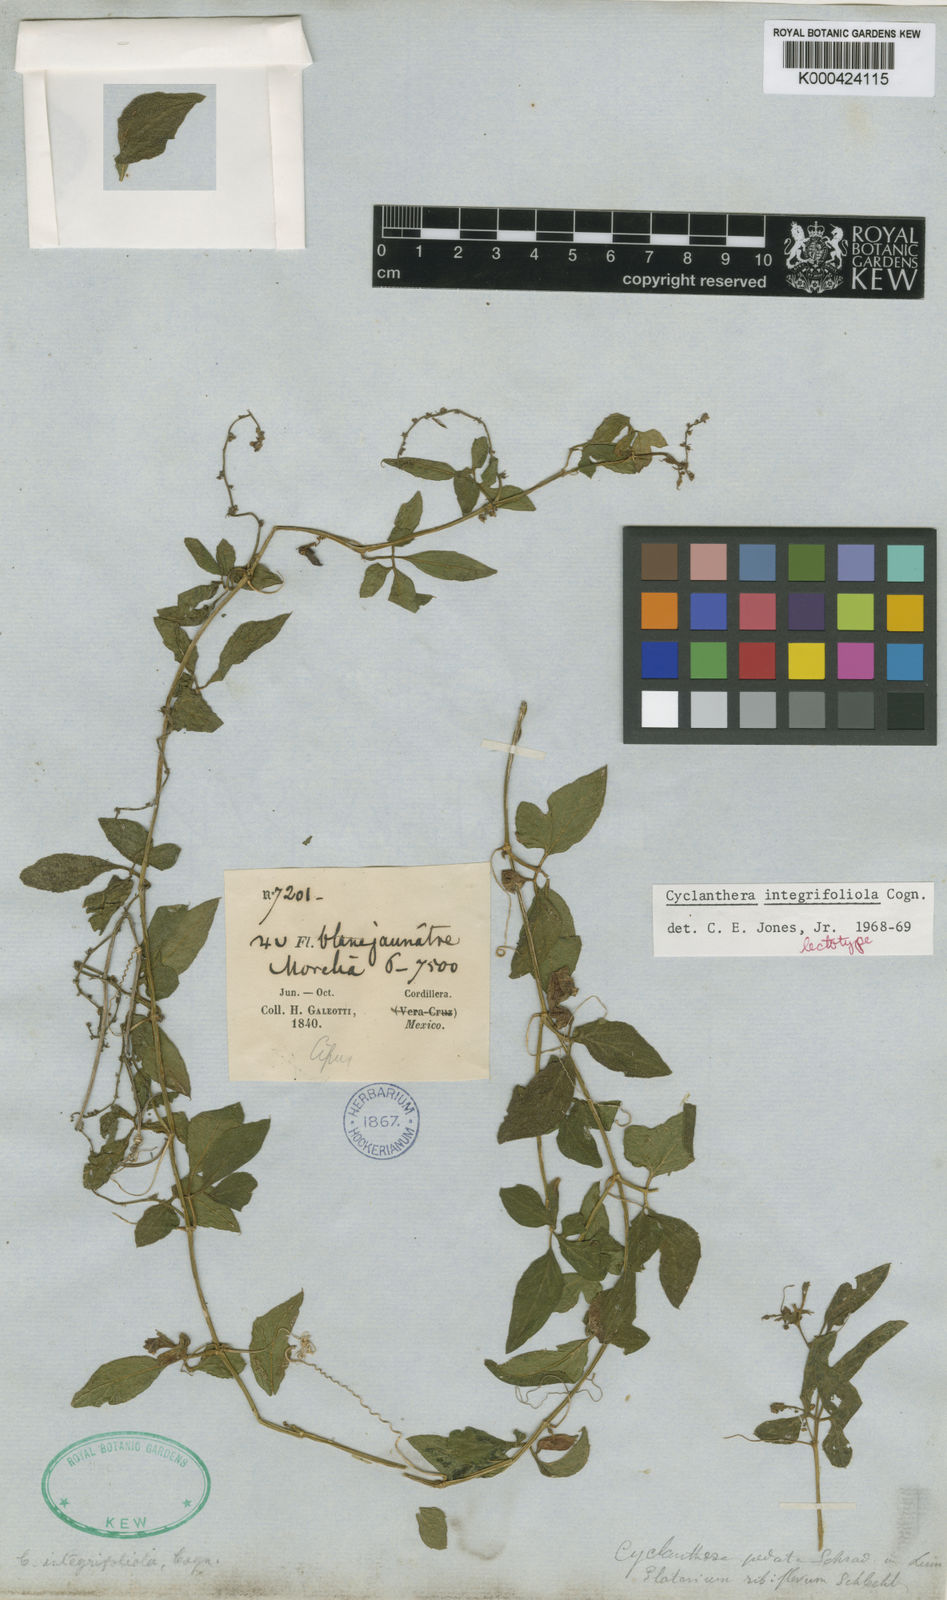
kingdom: Plantae
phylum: Tracheophyta
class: Magnoliopsida
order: Cucurbitales
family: Cucurbitaceae
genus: Cyclanthera
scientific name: Cyclanthera integrifoliola
